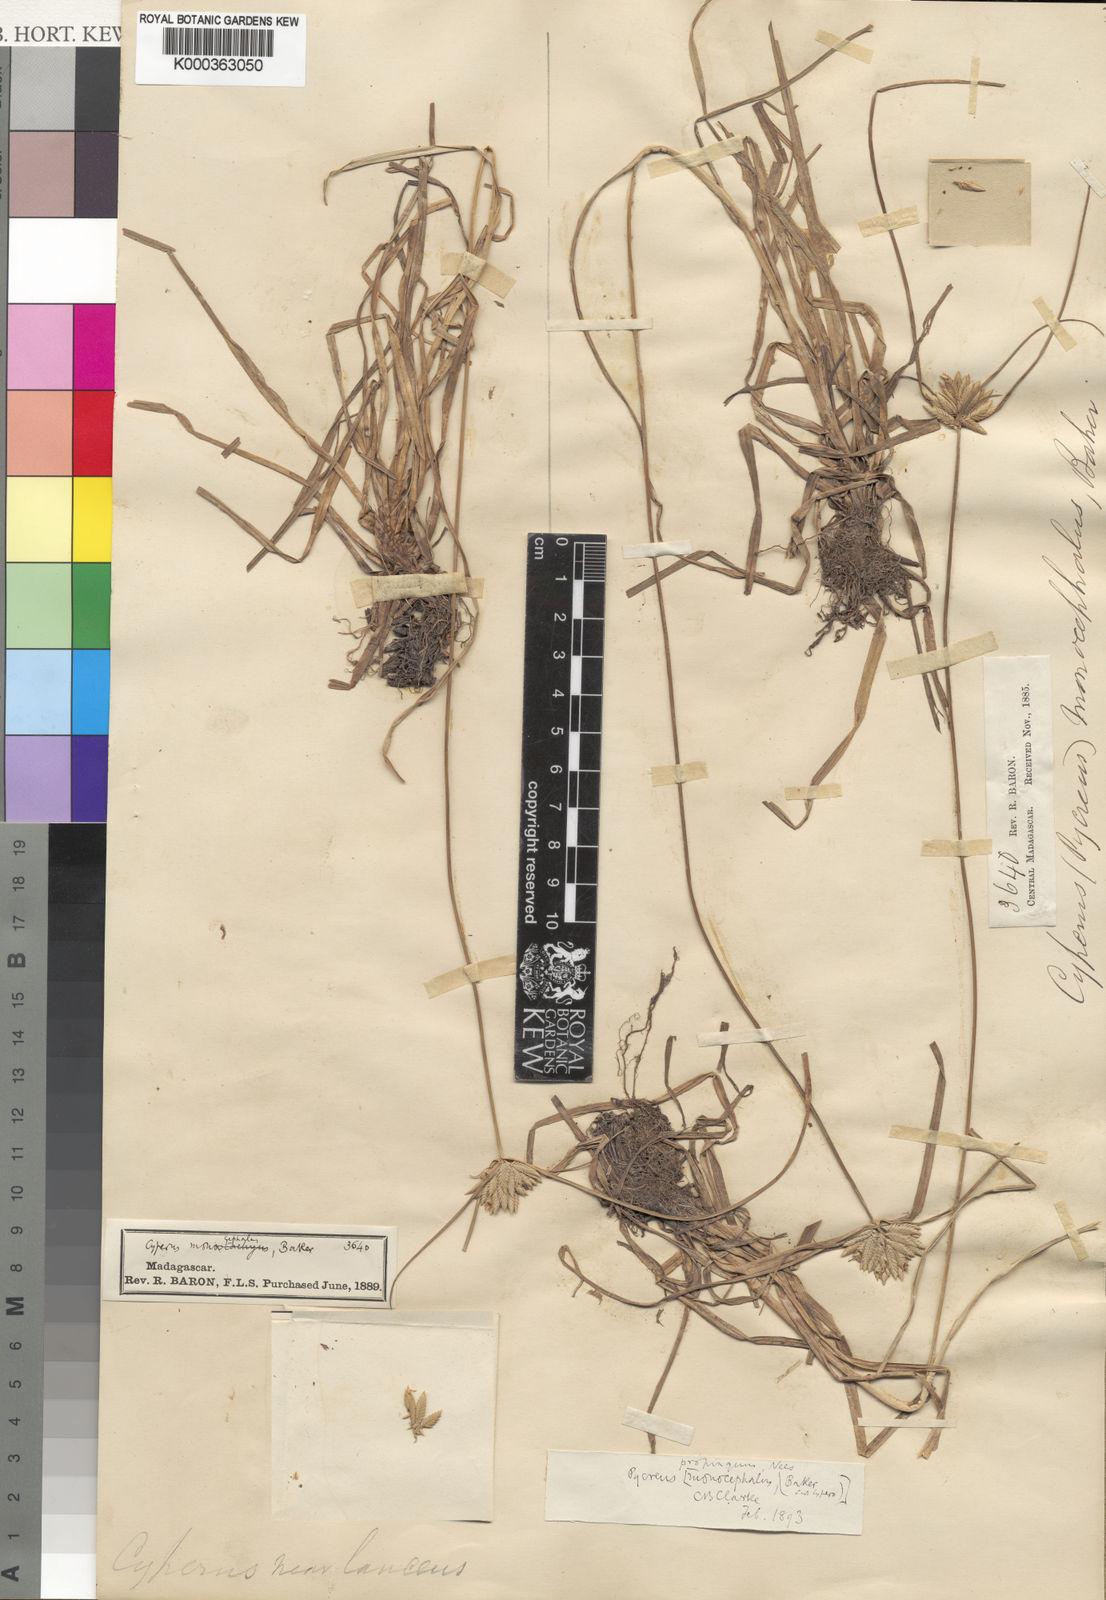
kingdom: Plantae
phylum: Tracheophyta
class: Liliopsida
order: Poales
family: Cyperaceae
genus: Cyperus
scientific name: Cyperus smithianus
